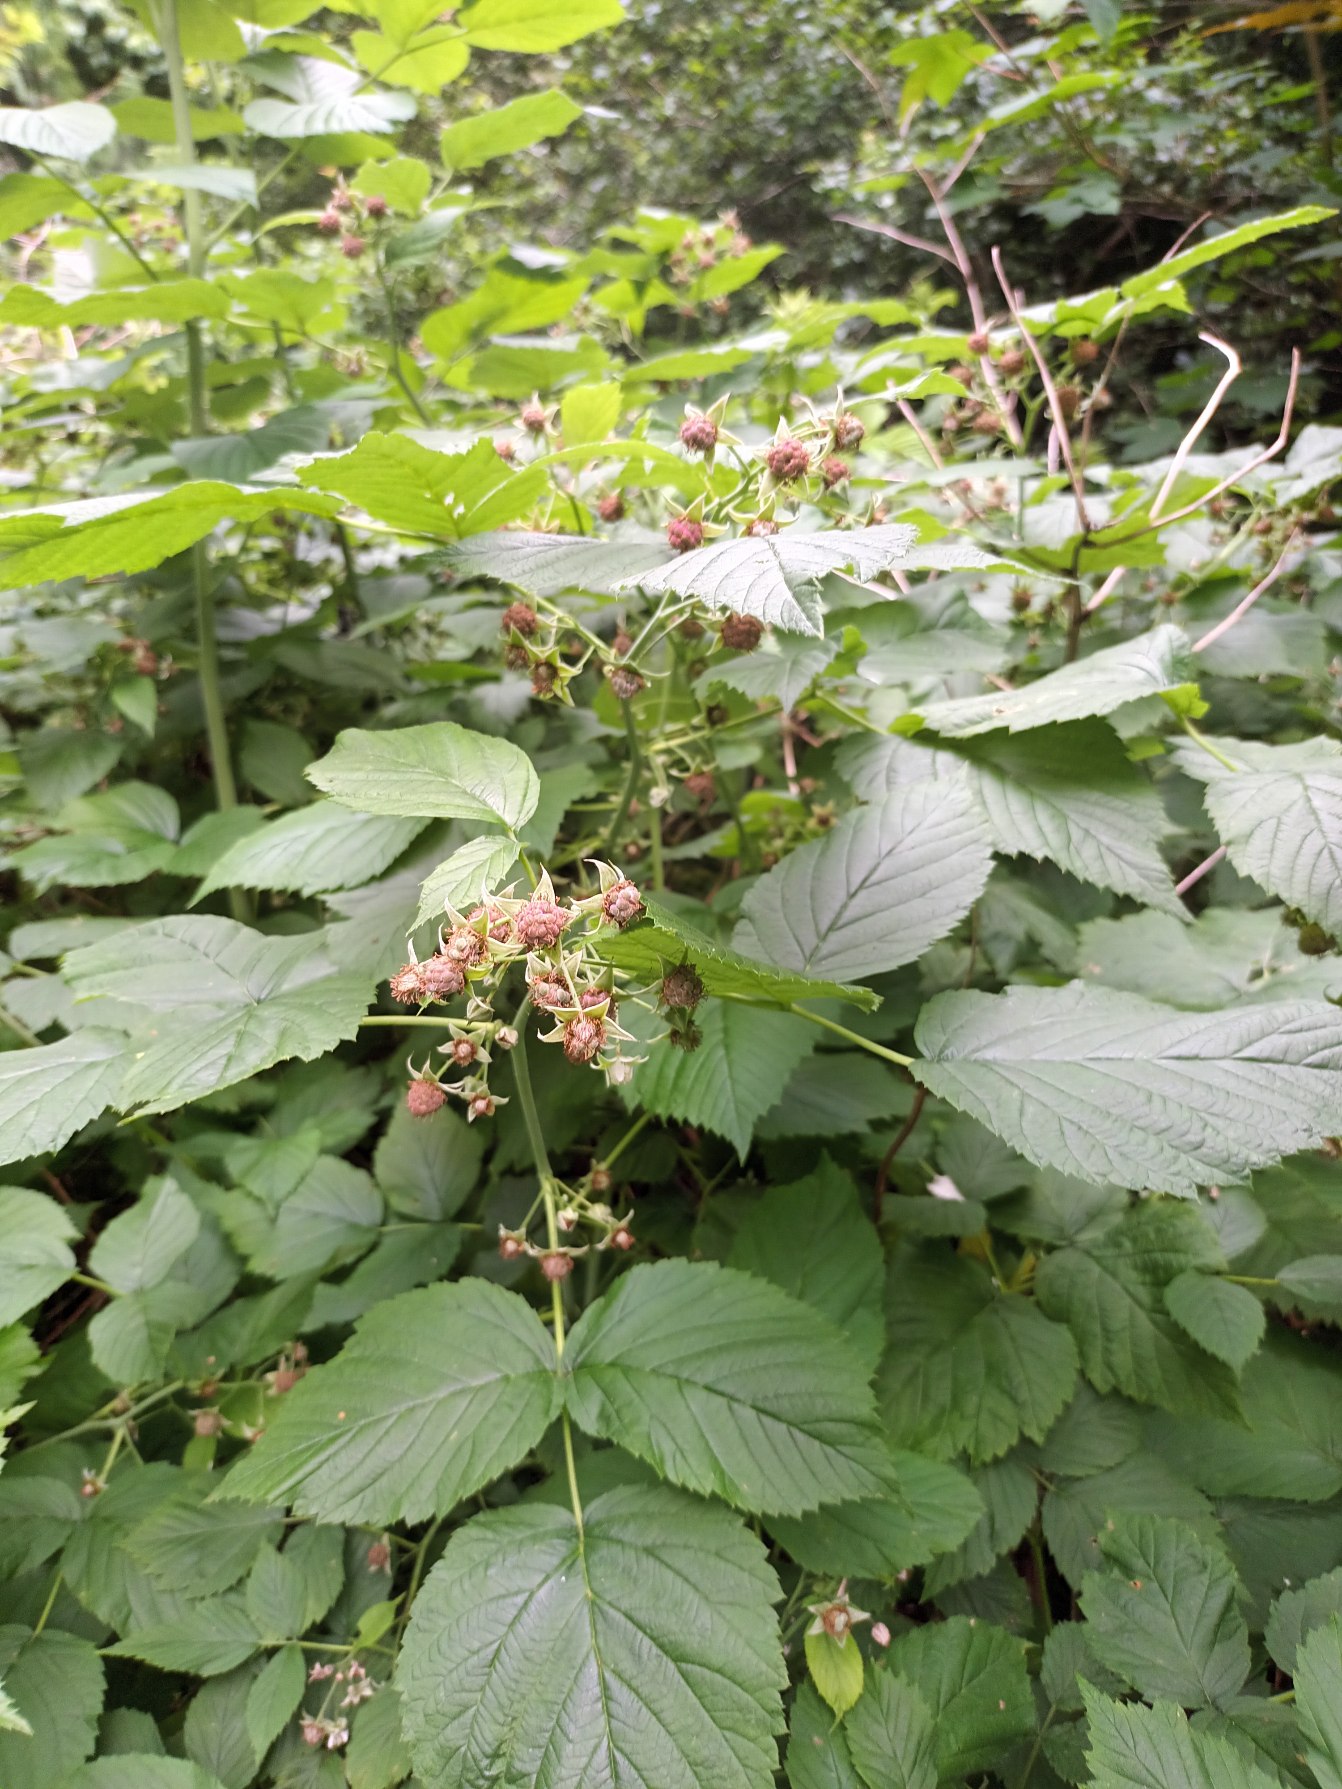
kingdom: Plantae
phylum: Tracheophyta
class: Magnoliopsida
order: Rosales
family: Rosaceae
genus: Rubus
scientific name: Rubus idaeus
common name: Hindbær
